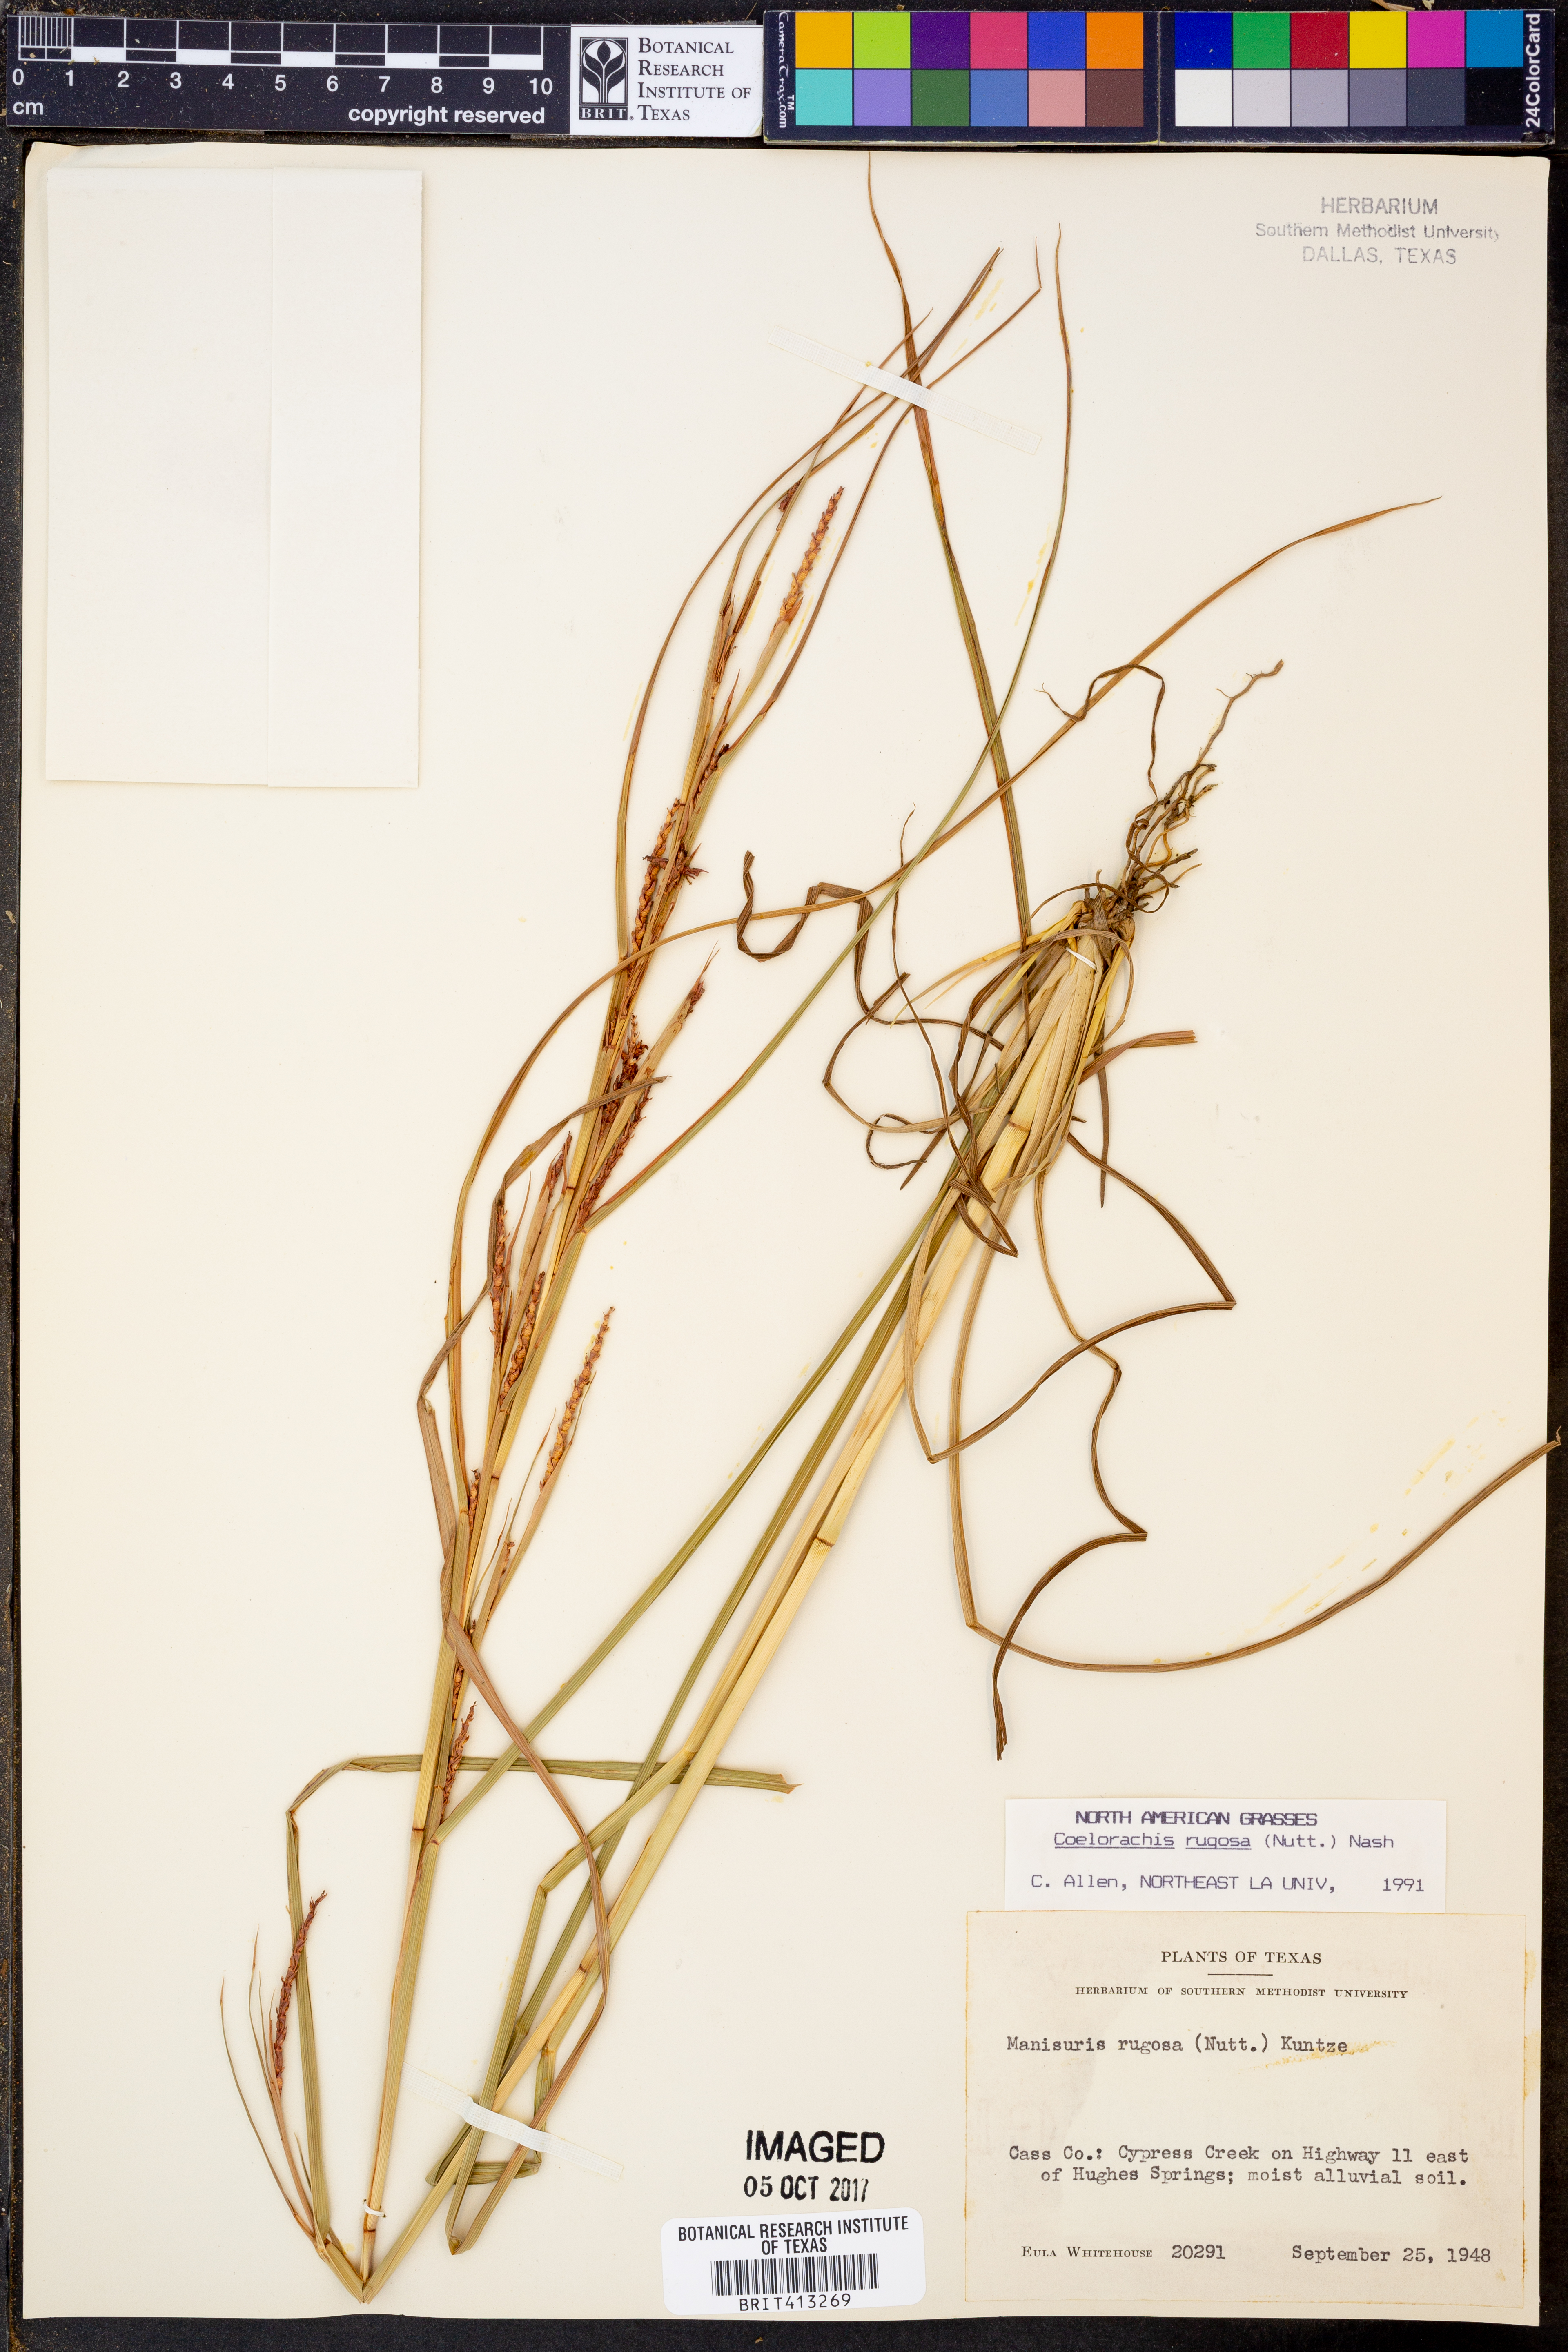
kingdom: Plantae
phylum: Tracheophyta
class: Liliopsida
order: Poales
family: Poaceae
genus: Rottboellia
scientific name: Rottboellia rugosa
